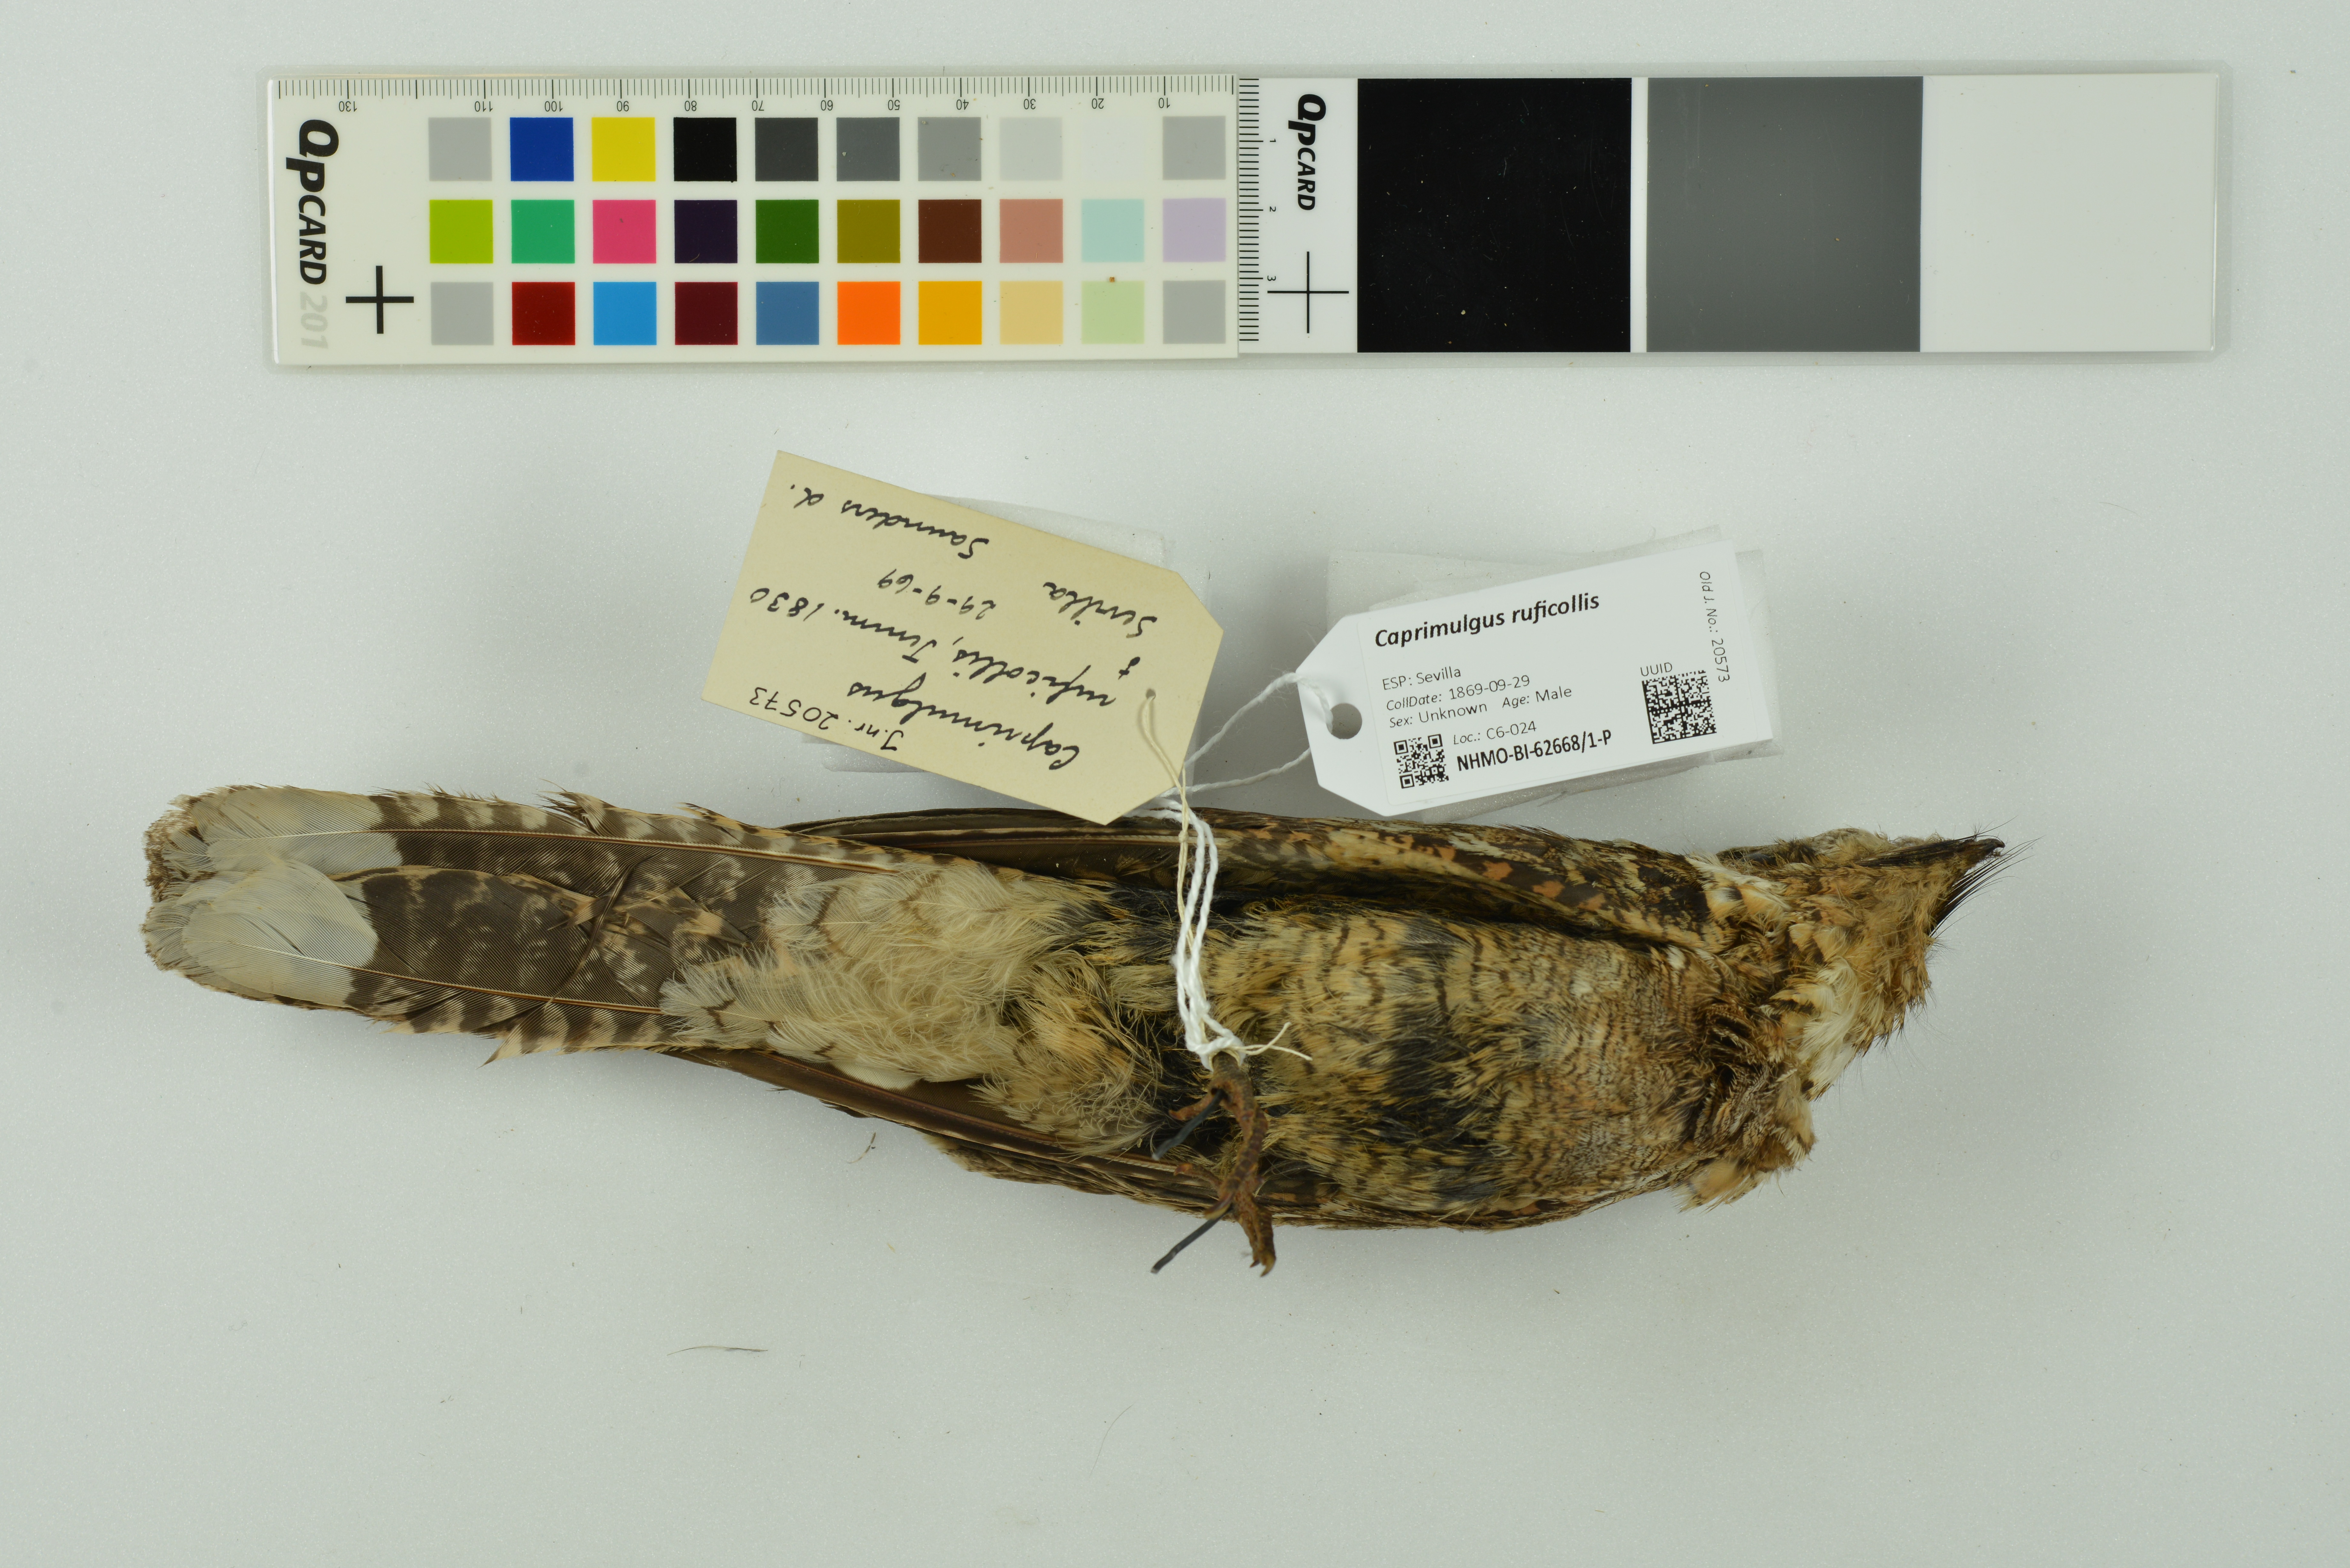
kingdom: Animalia
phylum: Chordata
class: Aves
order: Caprimulgiformes
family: Caprimulgidae
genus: Caprimulgus
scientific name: Caprimulgus ruficollis
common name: Red-necked nightjar
